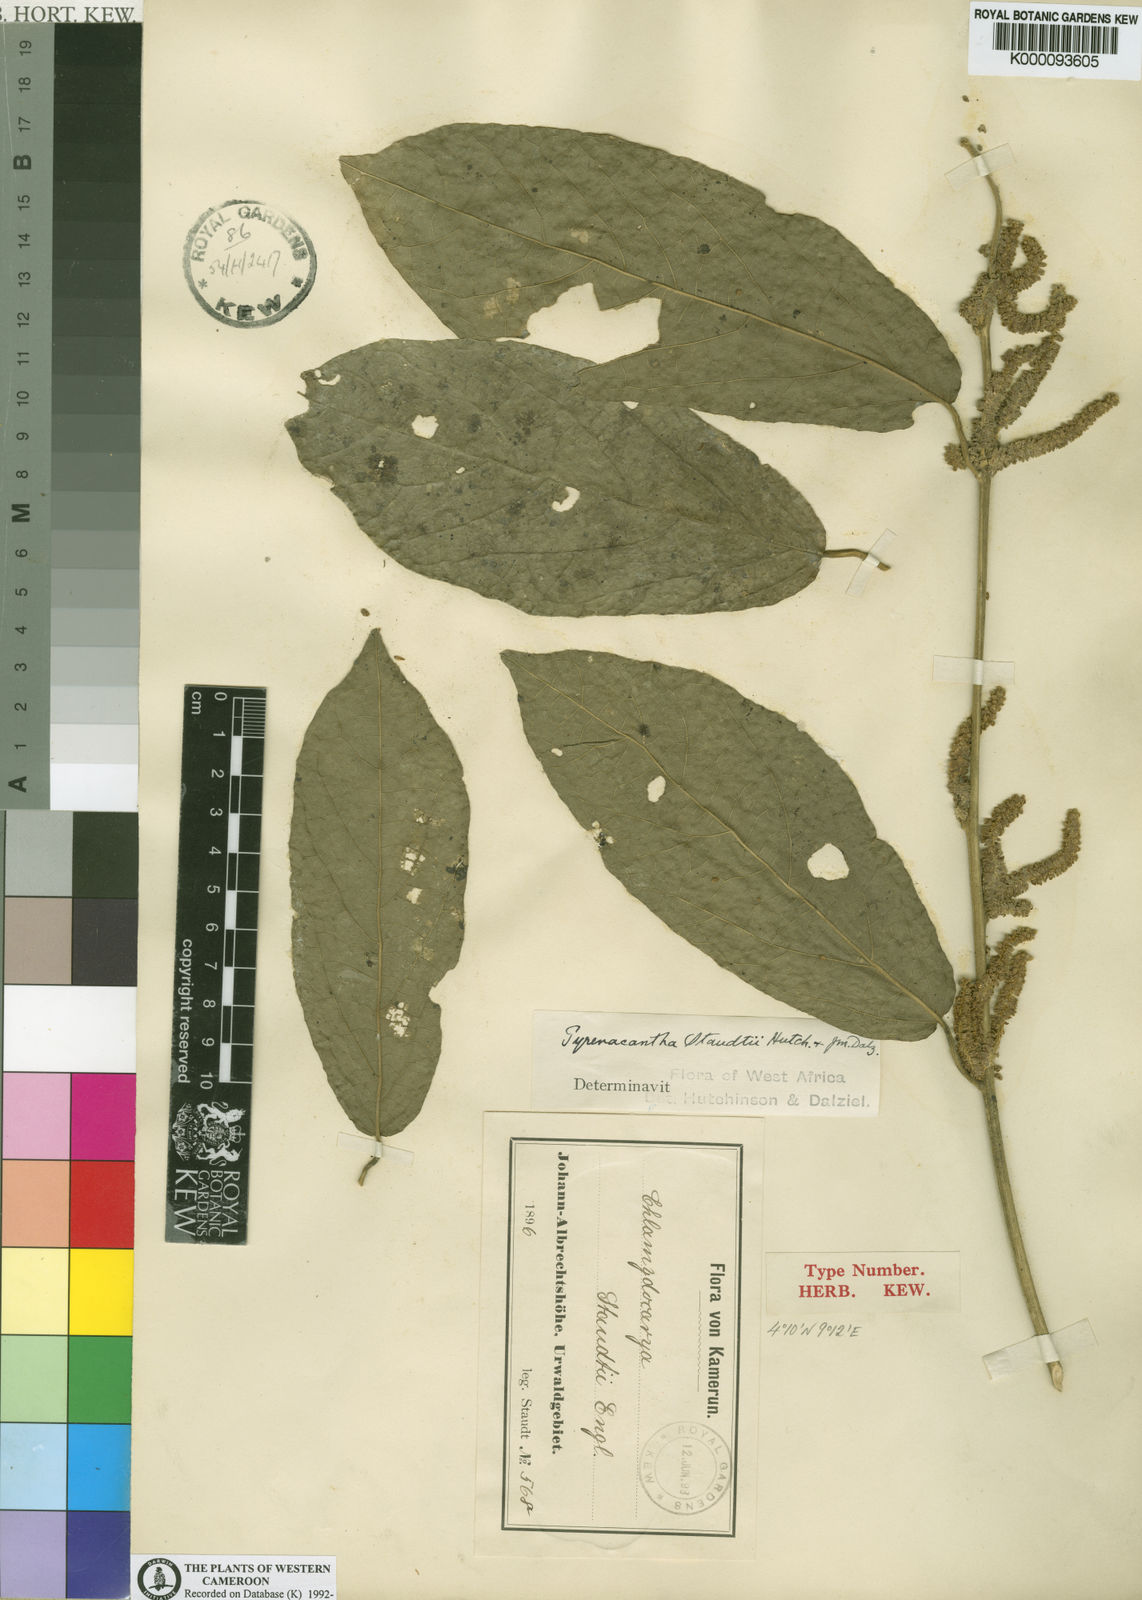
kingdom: Plantae
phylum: Tracheophyta
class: Magnoliopsida
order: Icacinales
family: Icacinaceae
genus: Pyrenacantha
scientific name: Pyrenacantha
